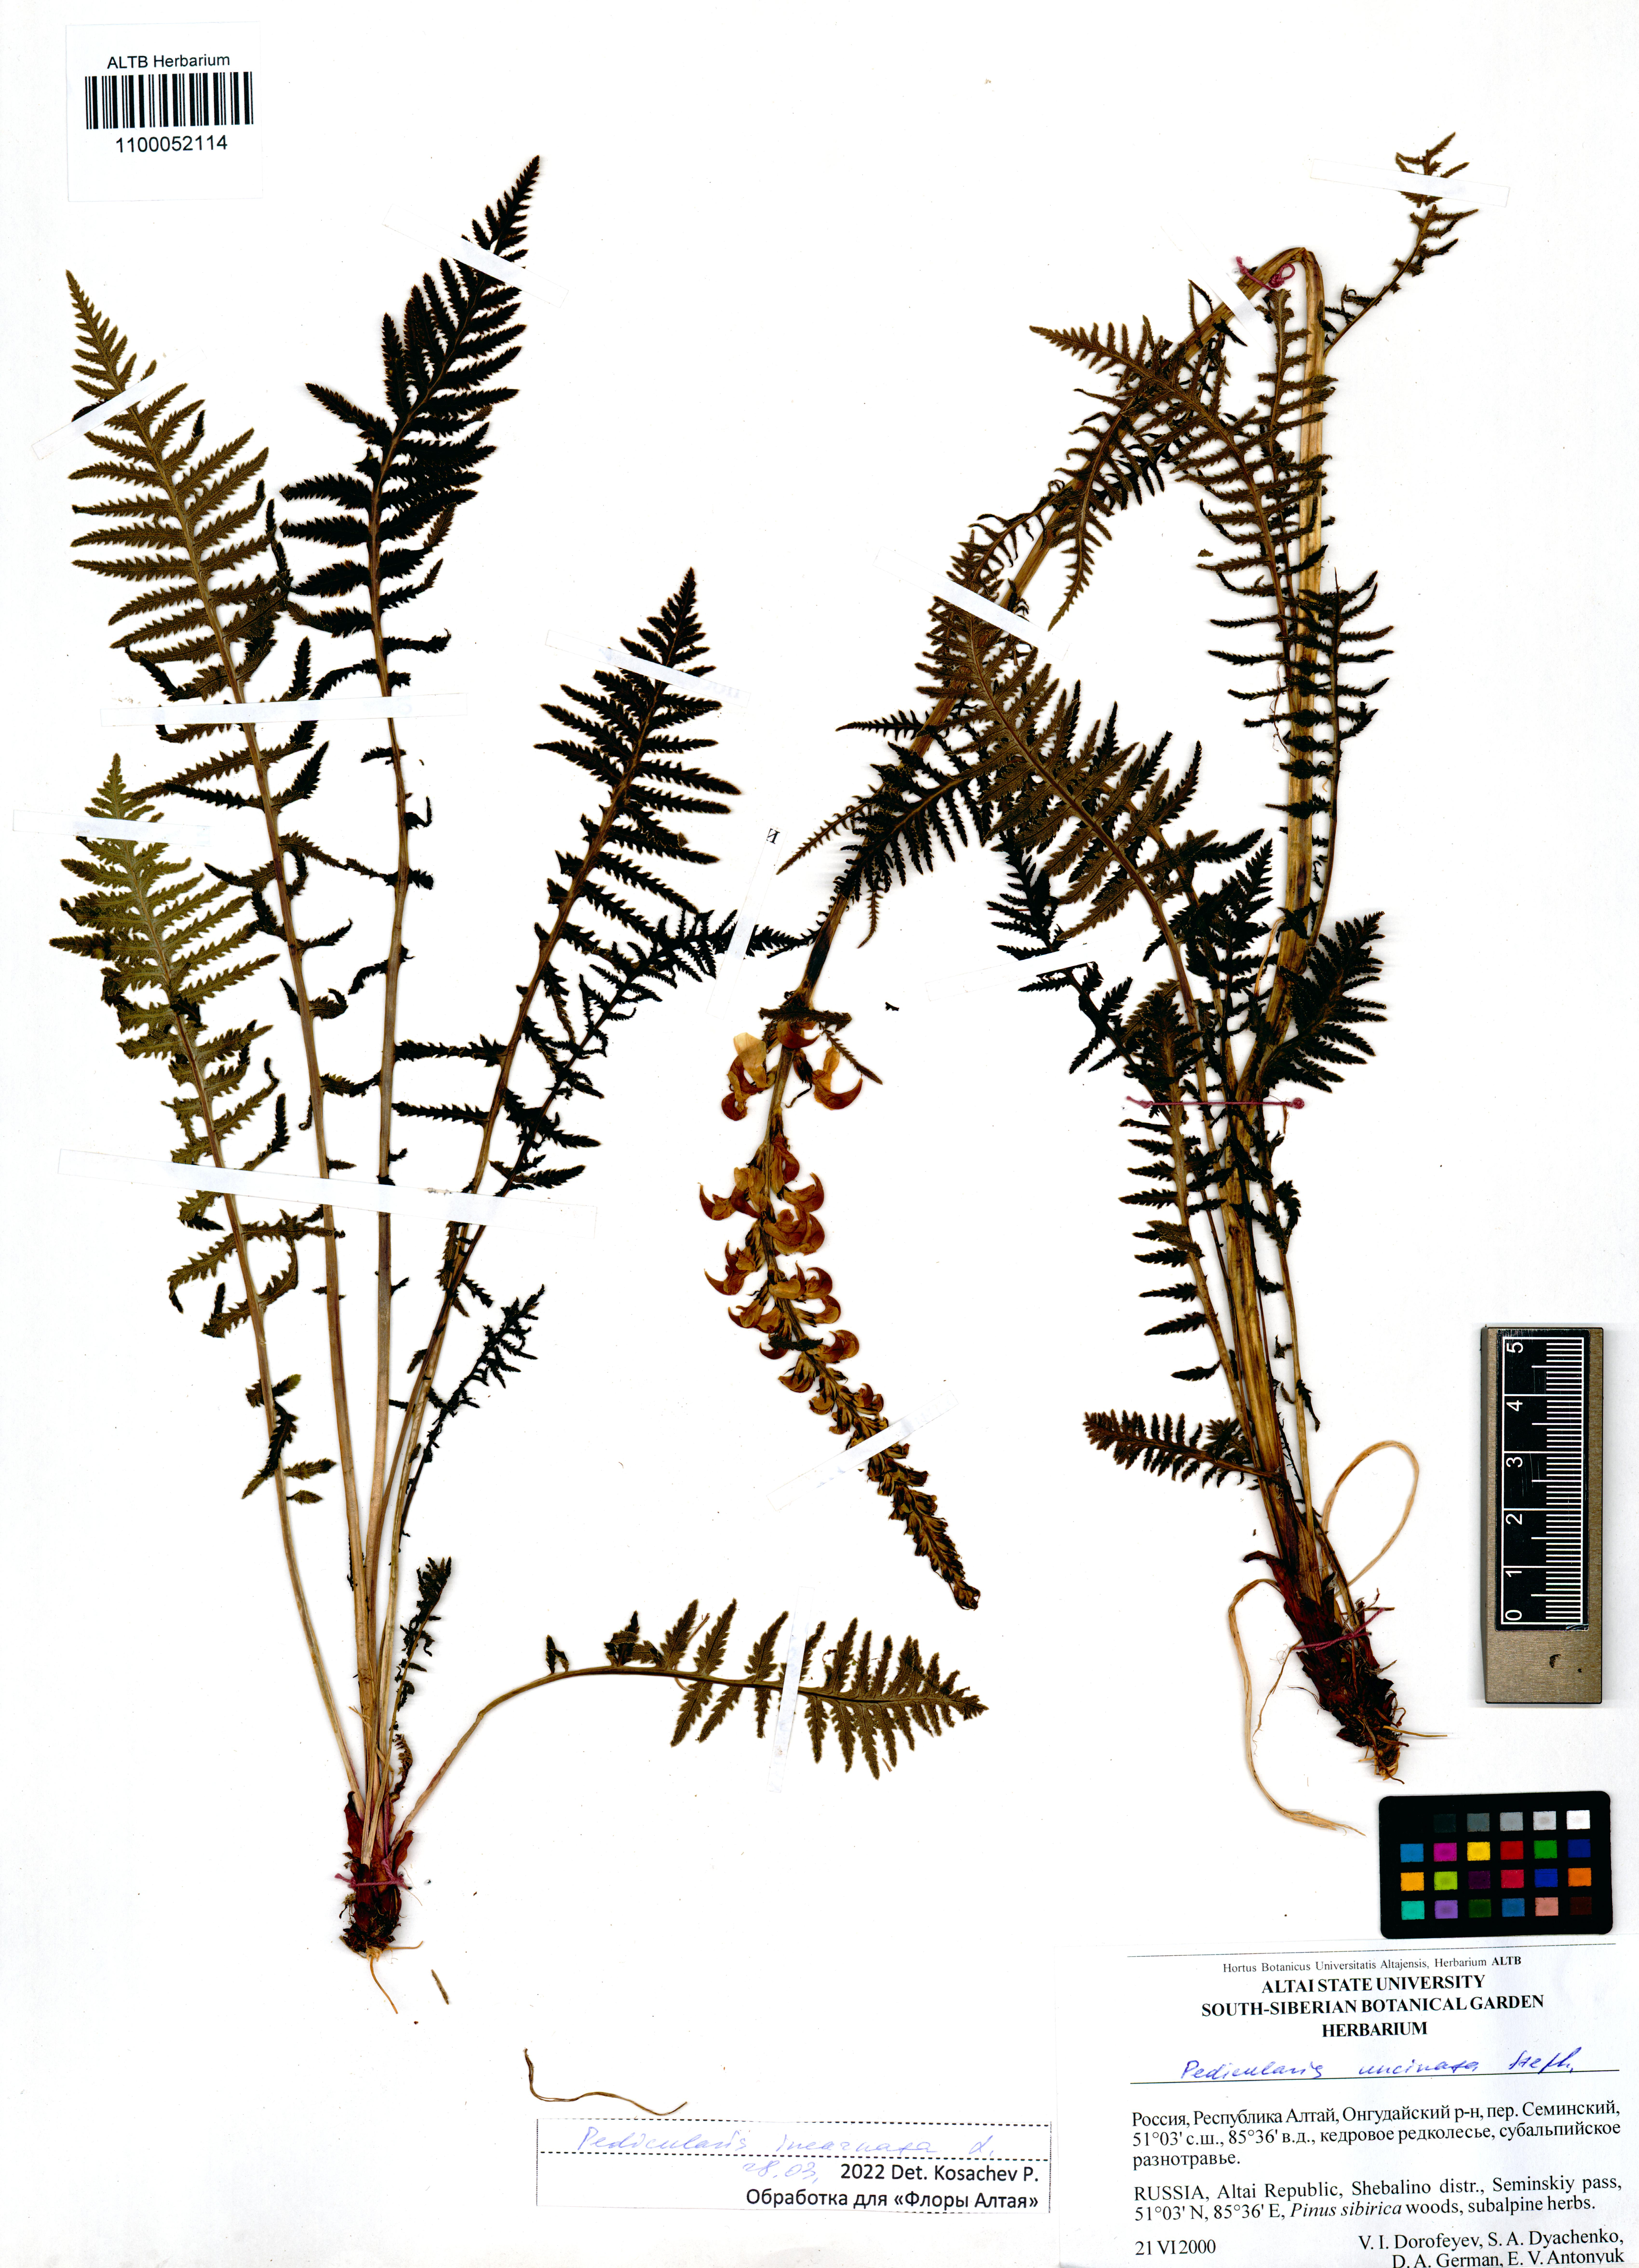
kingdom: Plantae
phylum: Tracheophyta
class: Magnoliopsida
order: Lamiales
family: Orobanchaceae
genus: Pedicularis
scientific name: Pedicularis incarnata
